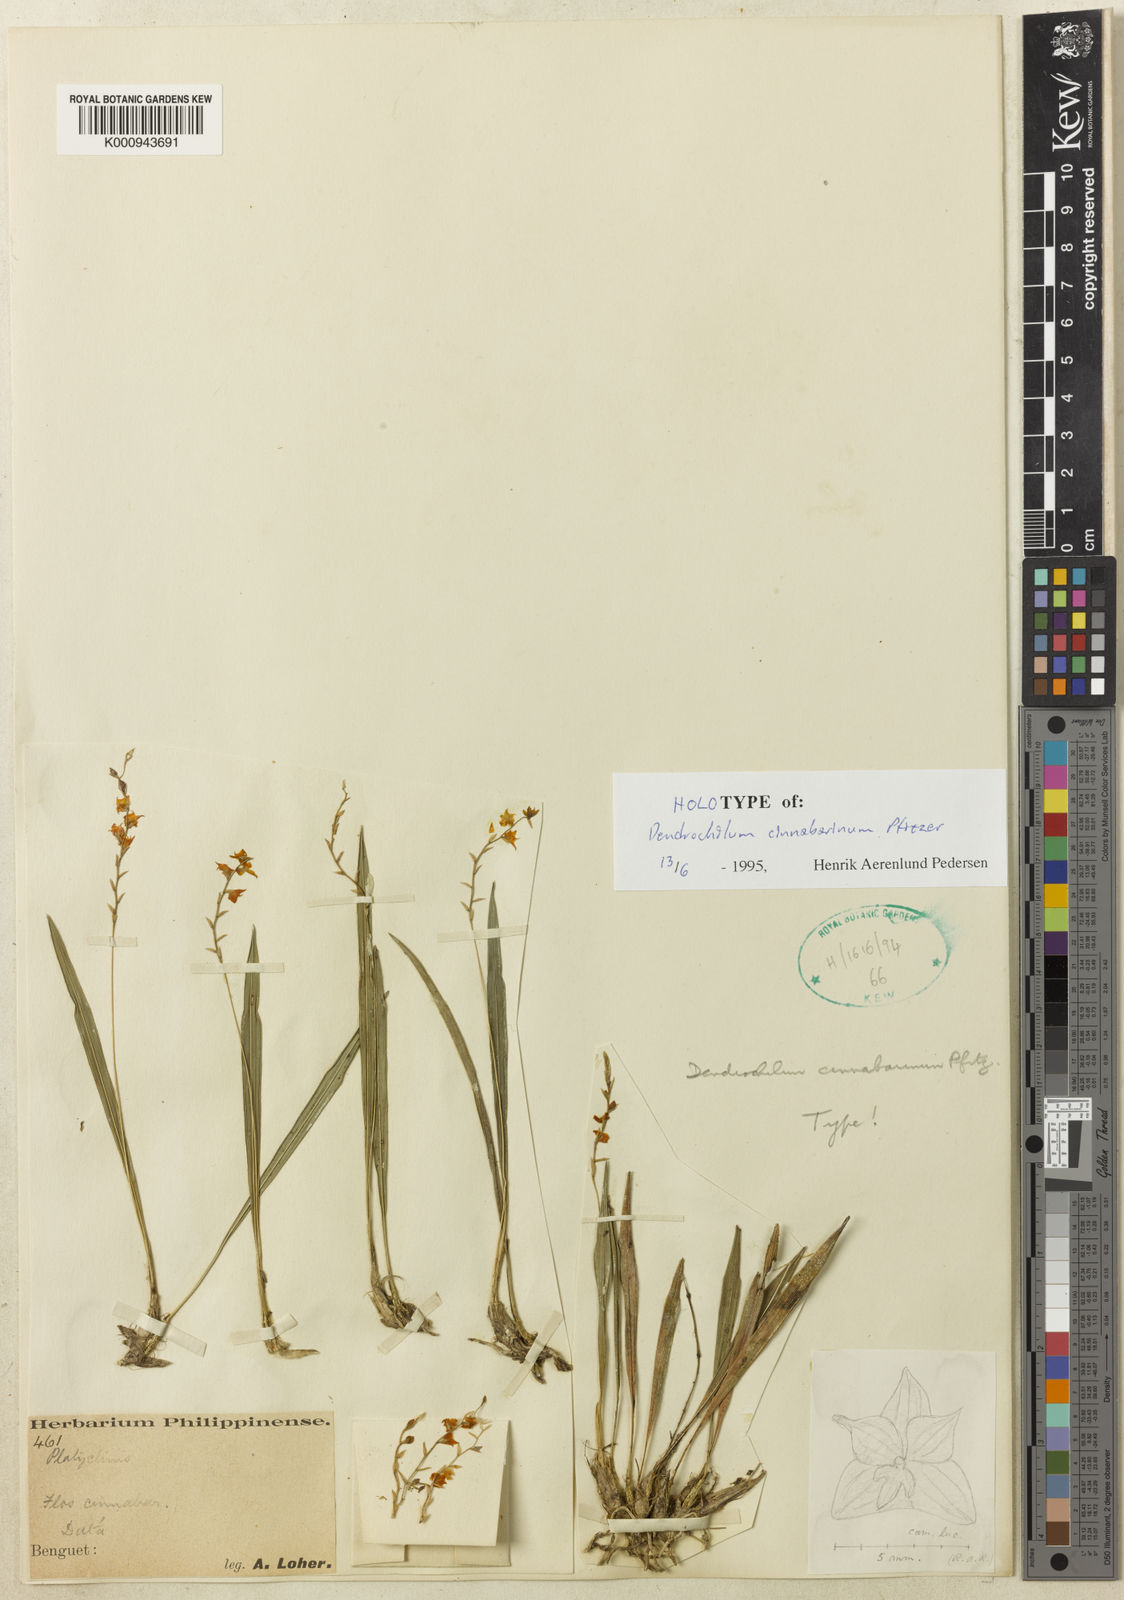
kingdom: Plantae
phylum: Tracheophyta
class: Liliopsida
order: Asparagales
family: Orchidaceae
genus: Coelogyne
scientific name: Coelogyne cinnabarina
